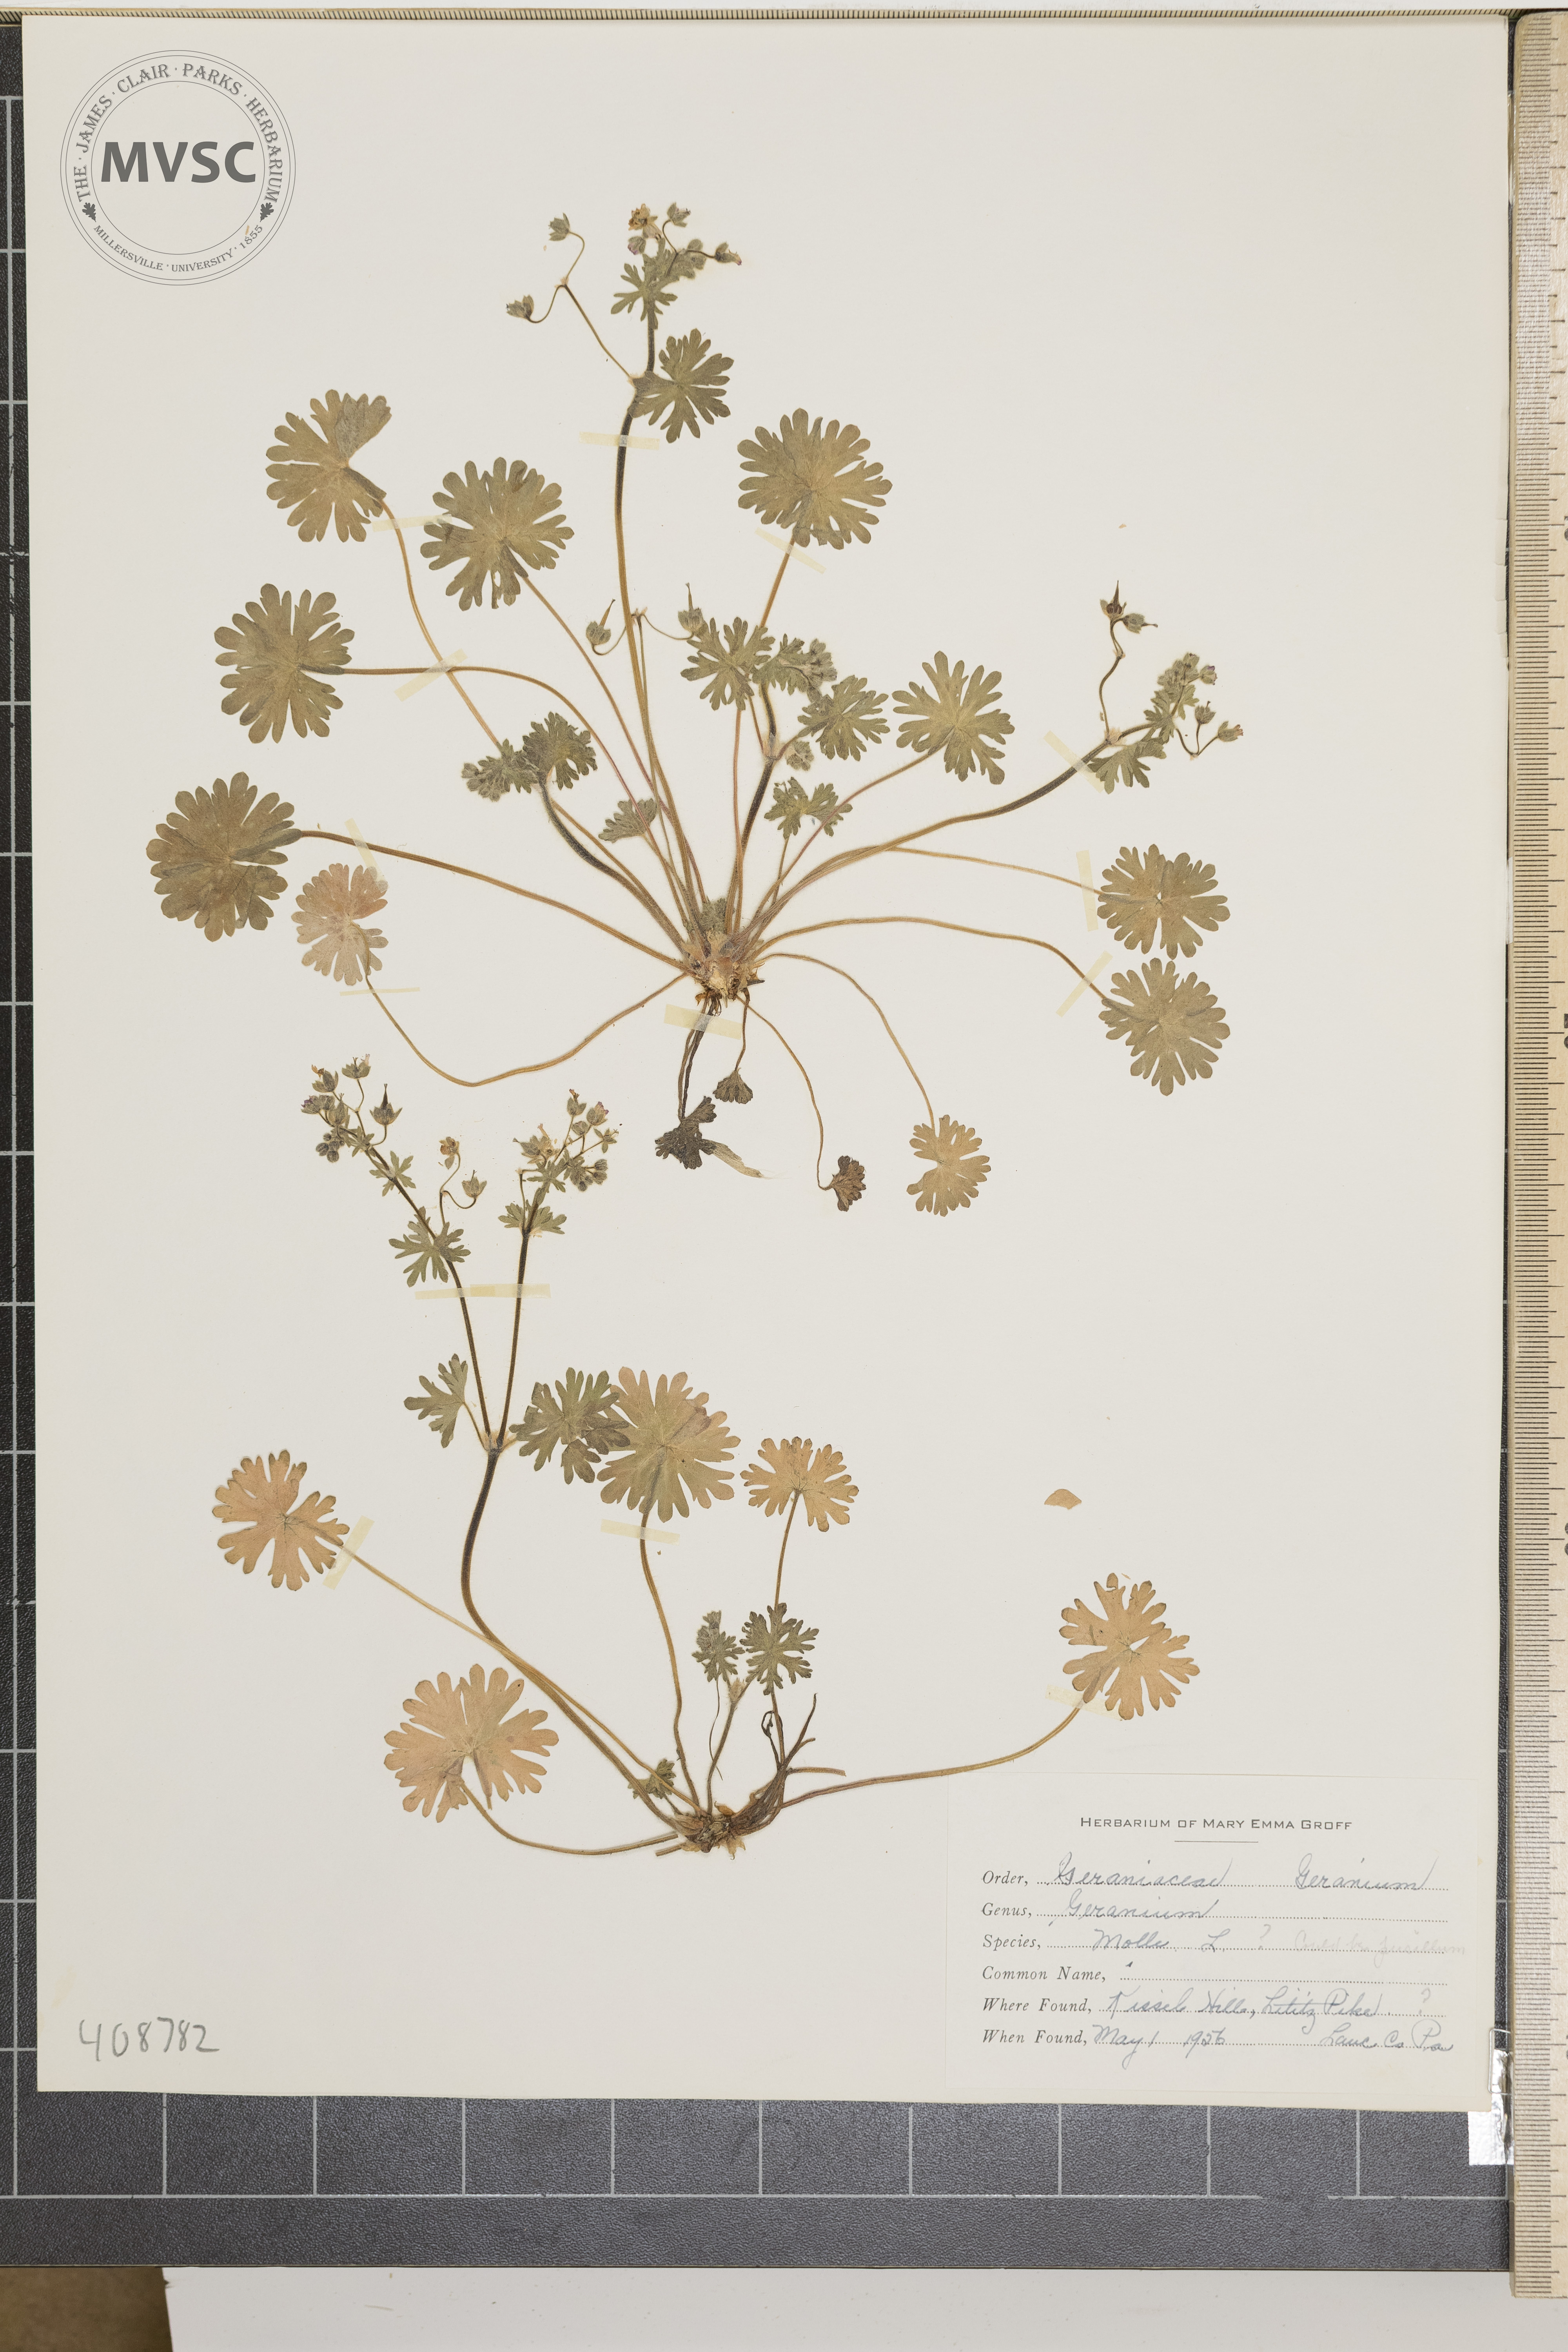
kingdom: Plantae
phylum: Tracheophyta
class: Magnoliopsida
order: Geraniales
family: Geraniaceae
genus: Geranium
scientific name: Geranium molle
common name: Dove's-foot crane's-bill
